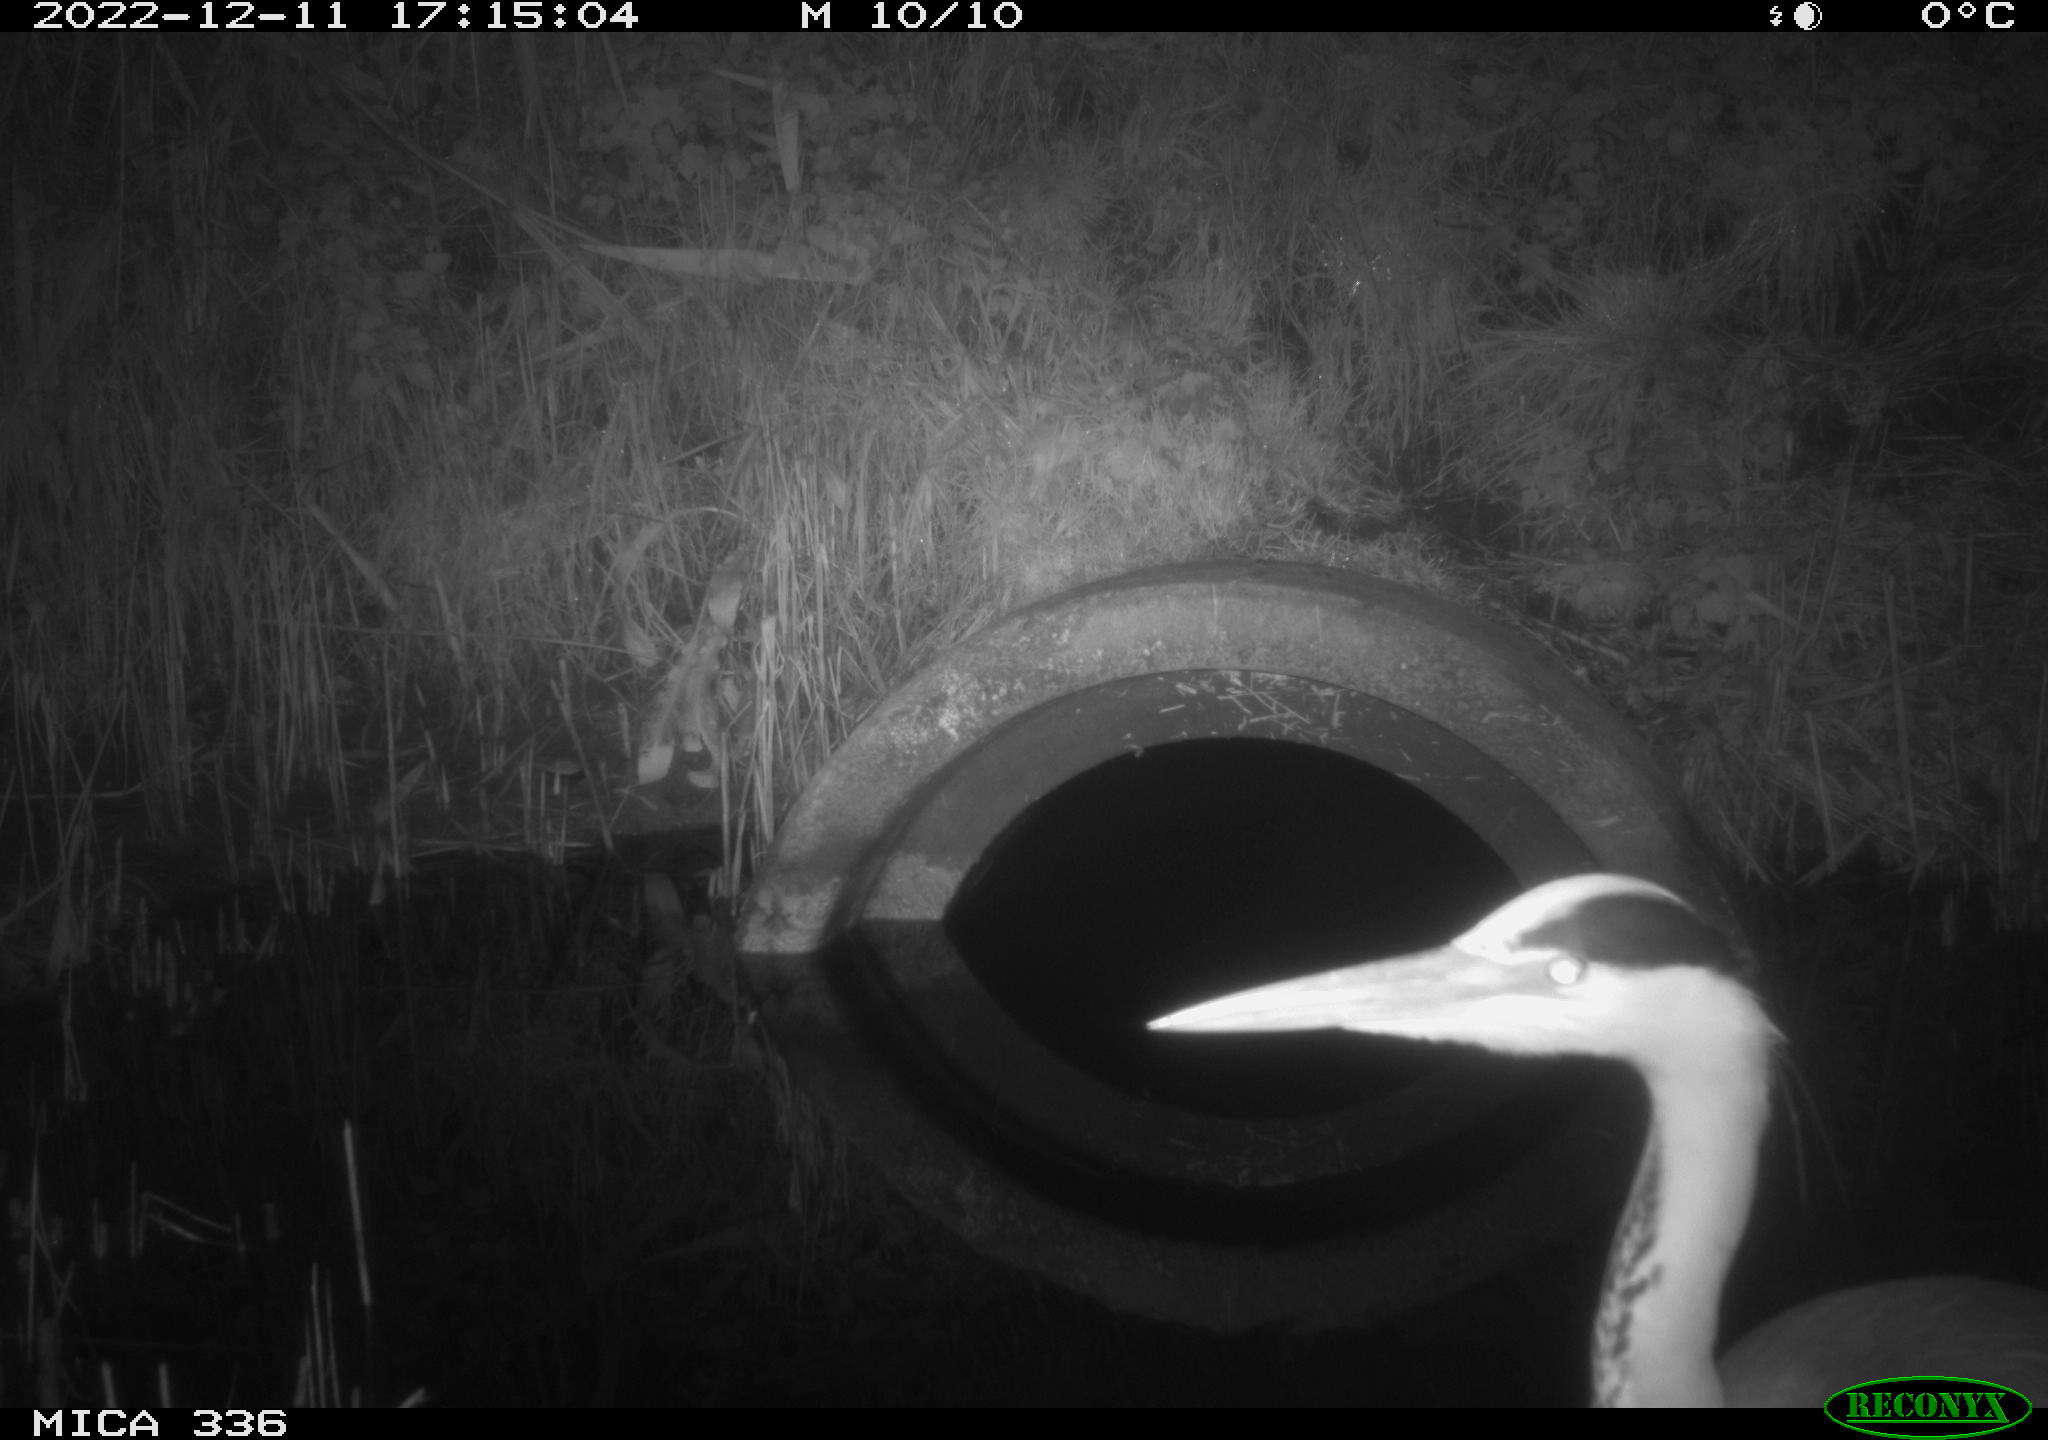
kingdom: Animalia
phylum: Chordata
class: Aves
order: Pelecaniformes
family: Ardeidae
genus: Ardea
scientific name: Ardea cinerea
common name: Grey heron
